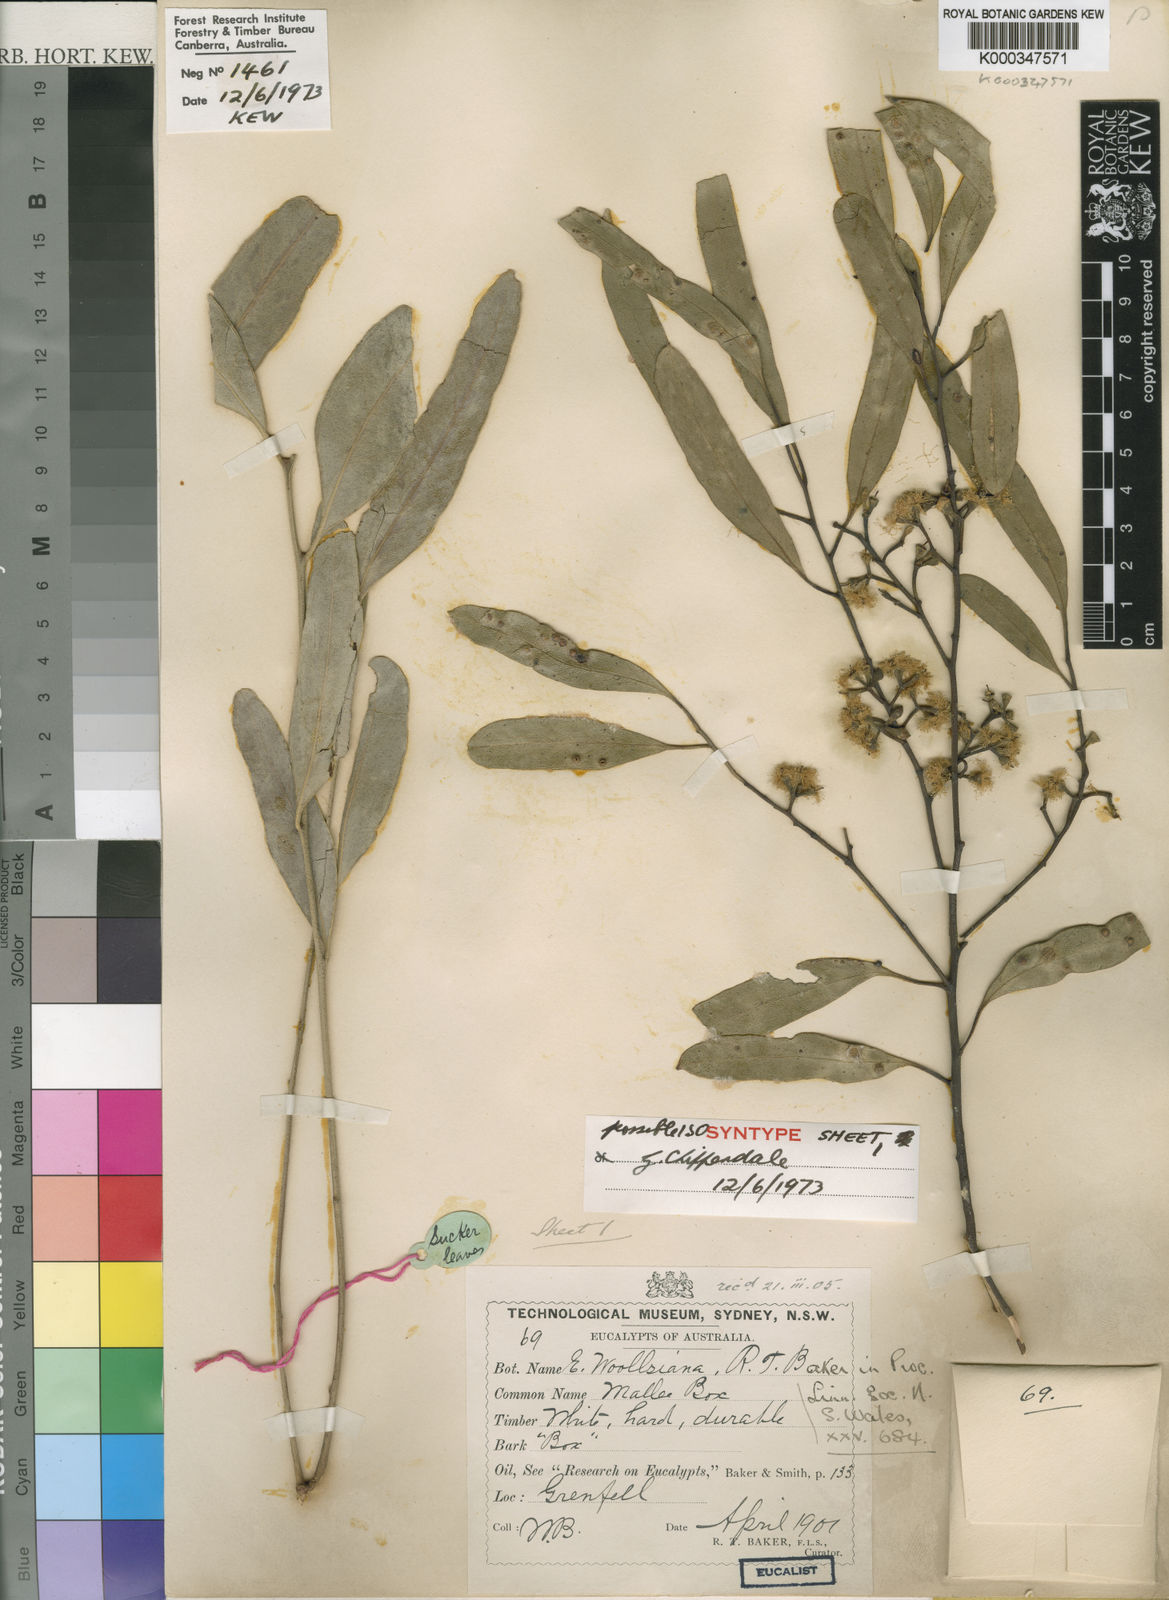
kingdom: Plantae
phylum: Tracheophyta
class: Magnoliopsida
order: Myrtales
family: Myrtaceae
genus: Eucalyptus
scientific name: Eucalyptus woollsiana
